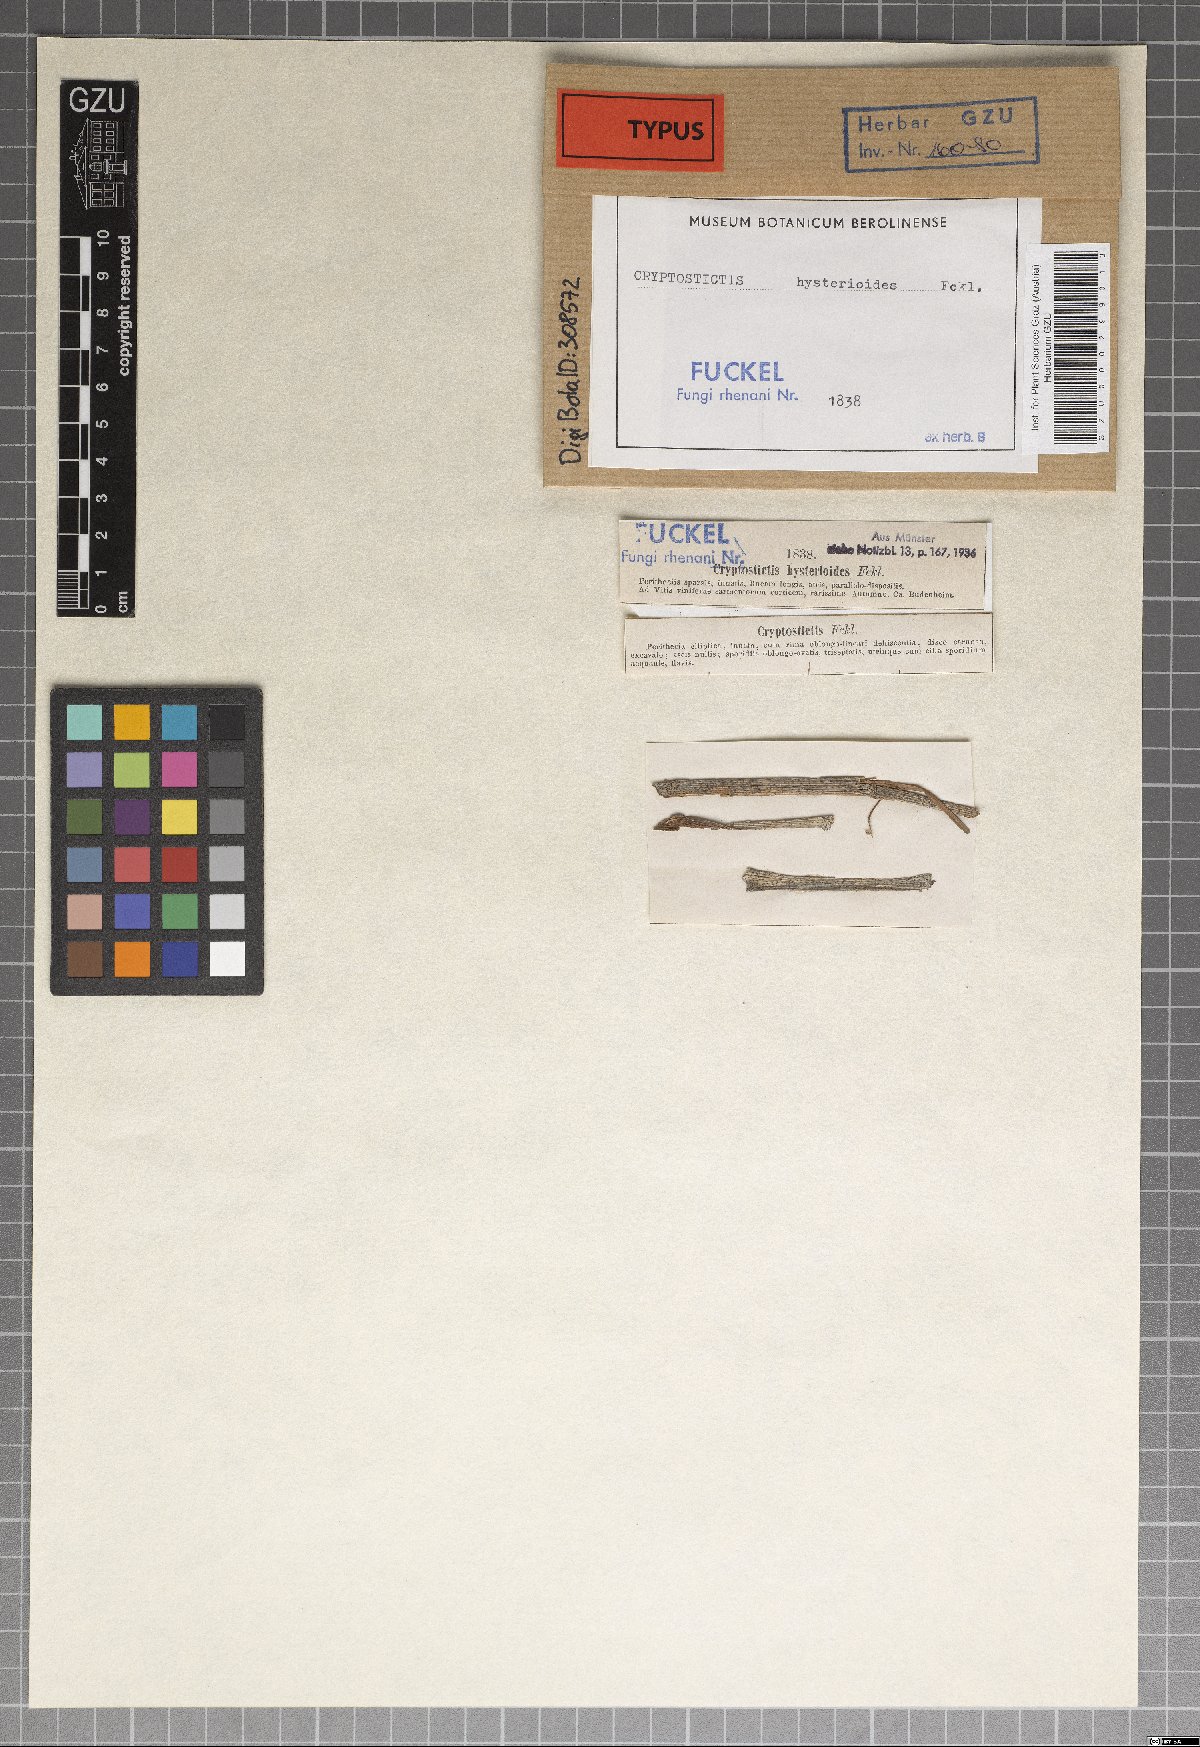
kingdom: Fungi
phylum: Ascomycota
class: Sordariomycetes
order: Amphisphaeriales
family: Sporocadaceae
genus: Seimatosporium
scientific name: Seimatosporium hysterioides
